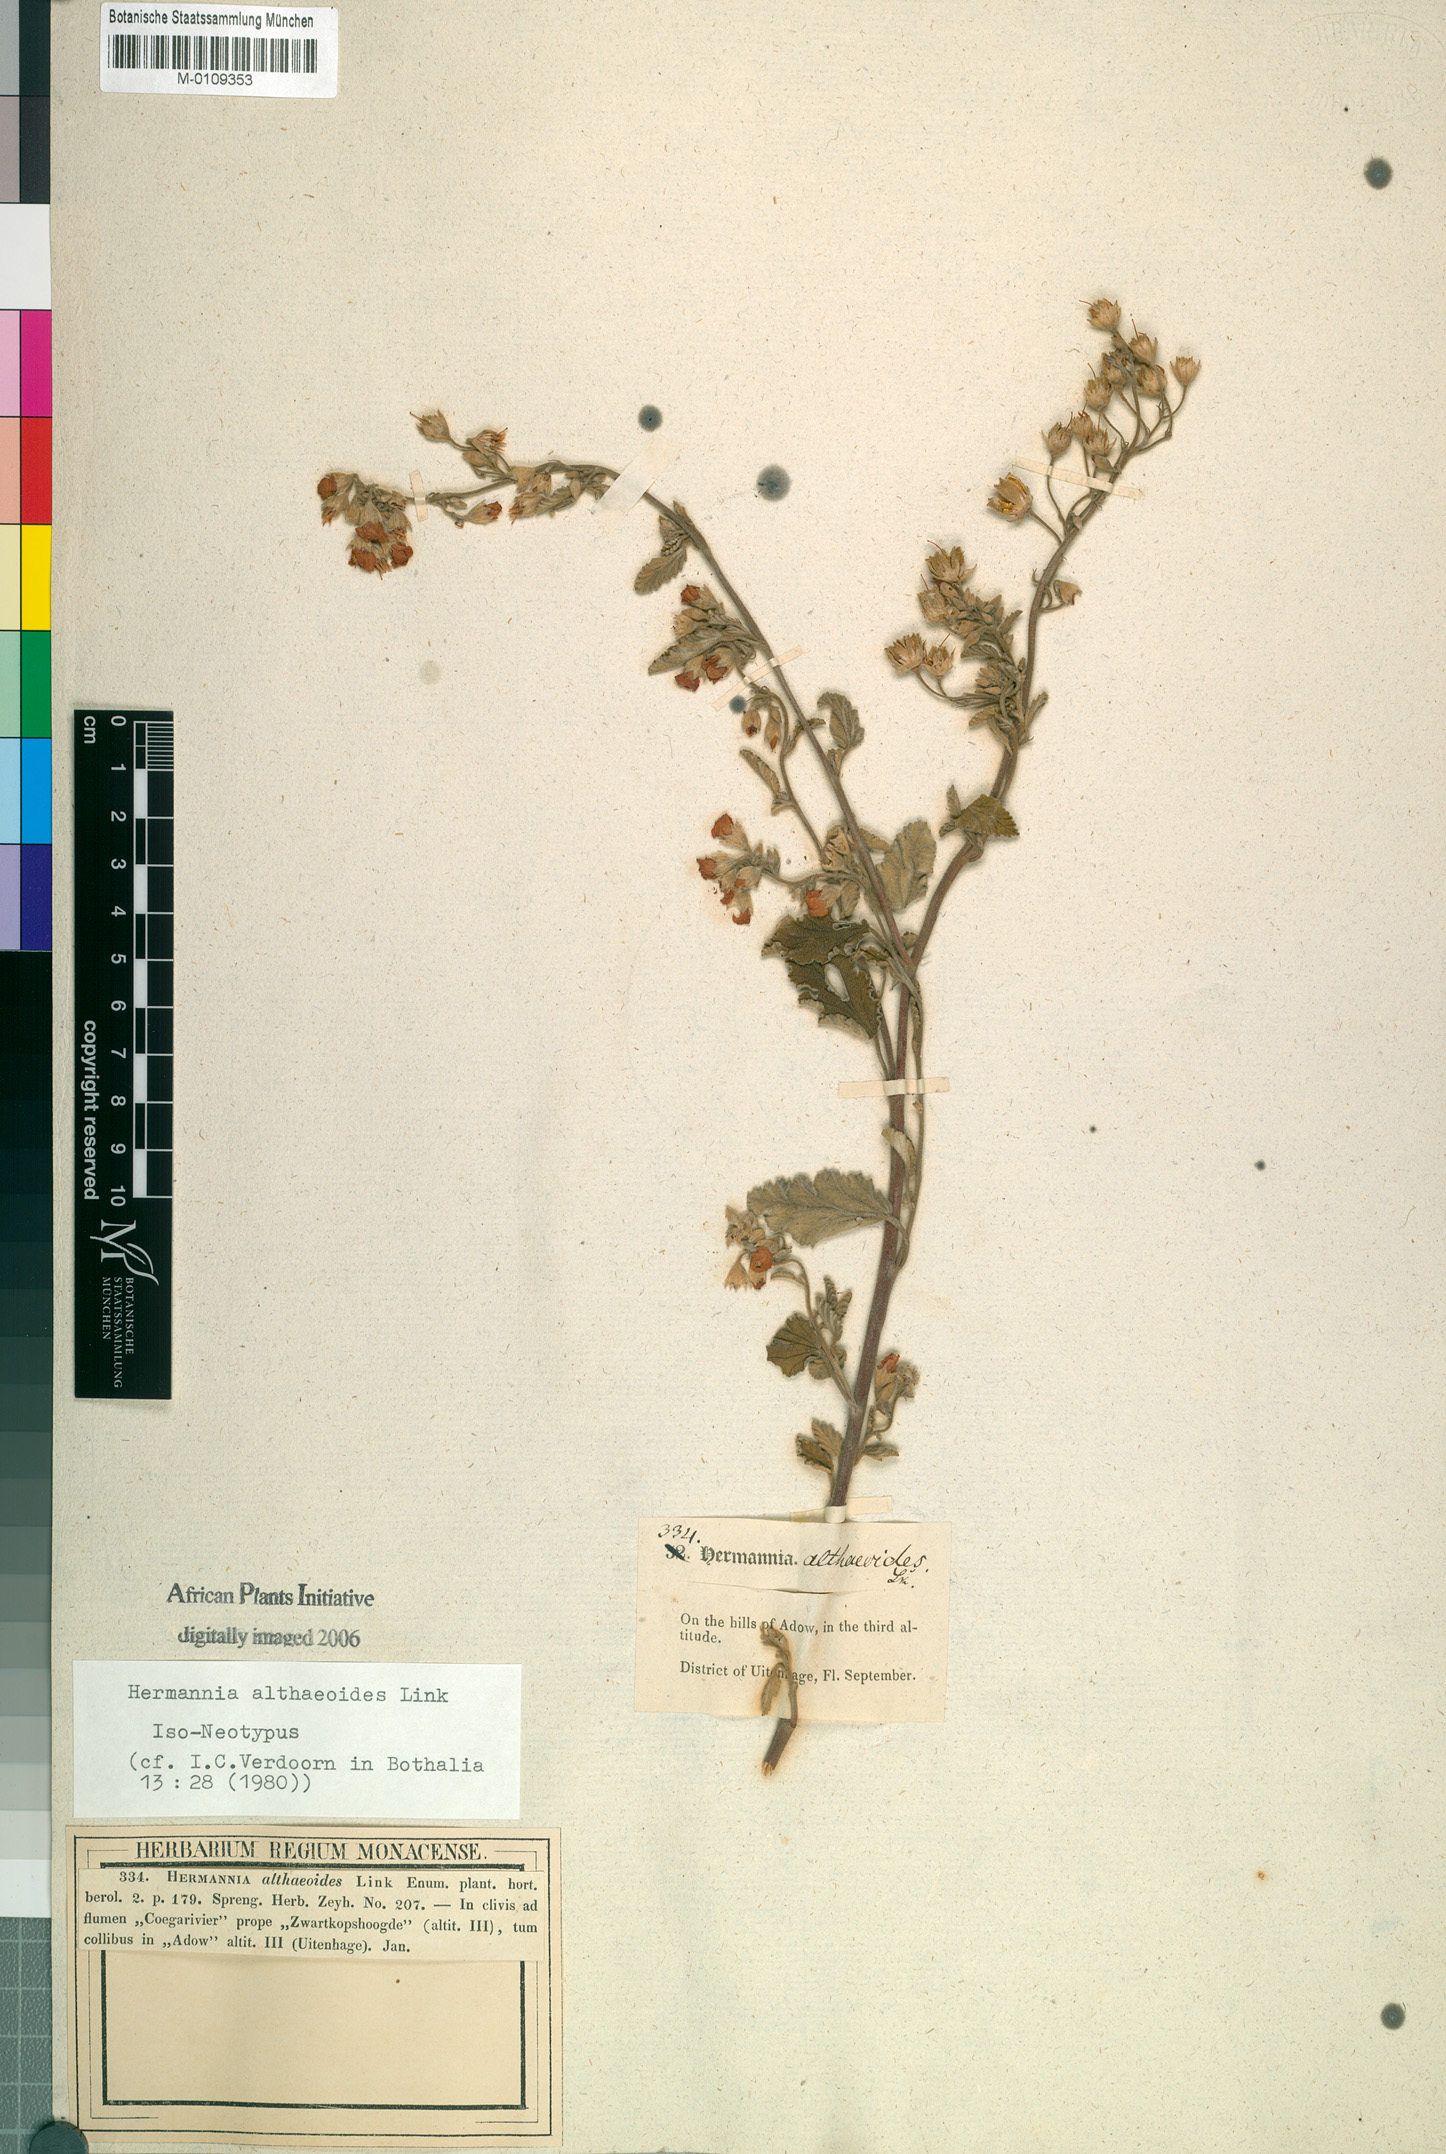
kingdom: Plantae
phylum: Tracheophyta
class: Magnoliopsida
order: Malvales
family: Malvaceae
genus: Hermannia
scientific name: Hermannia althaeoides
